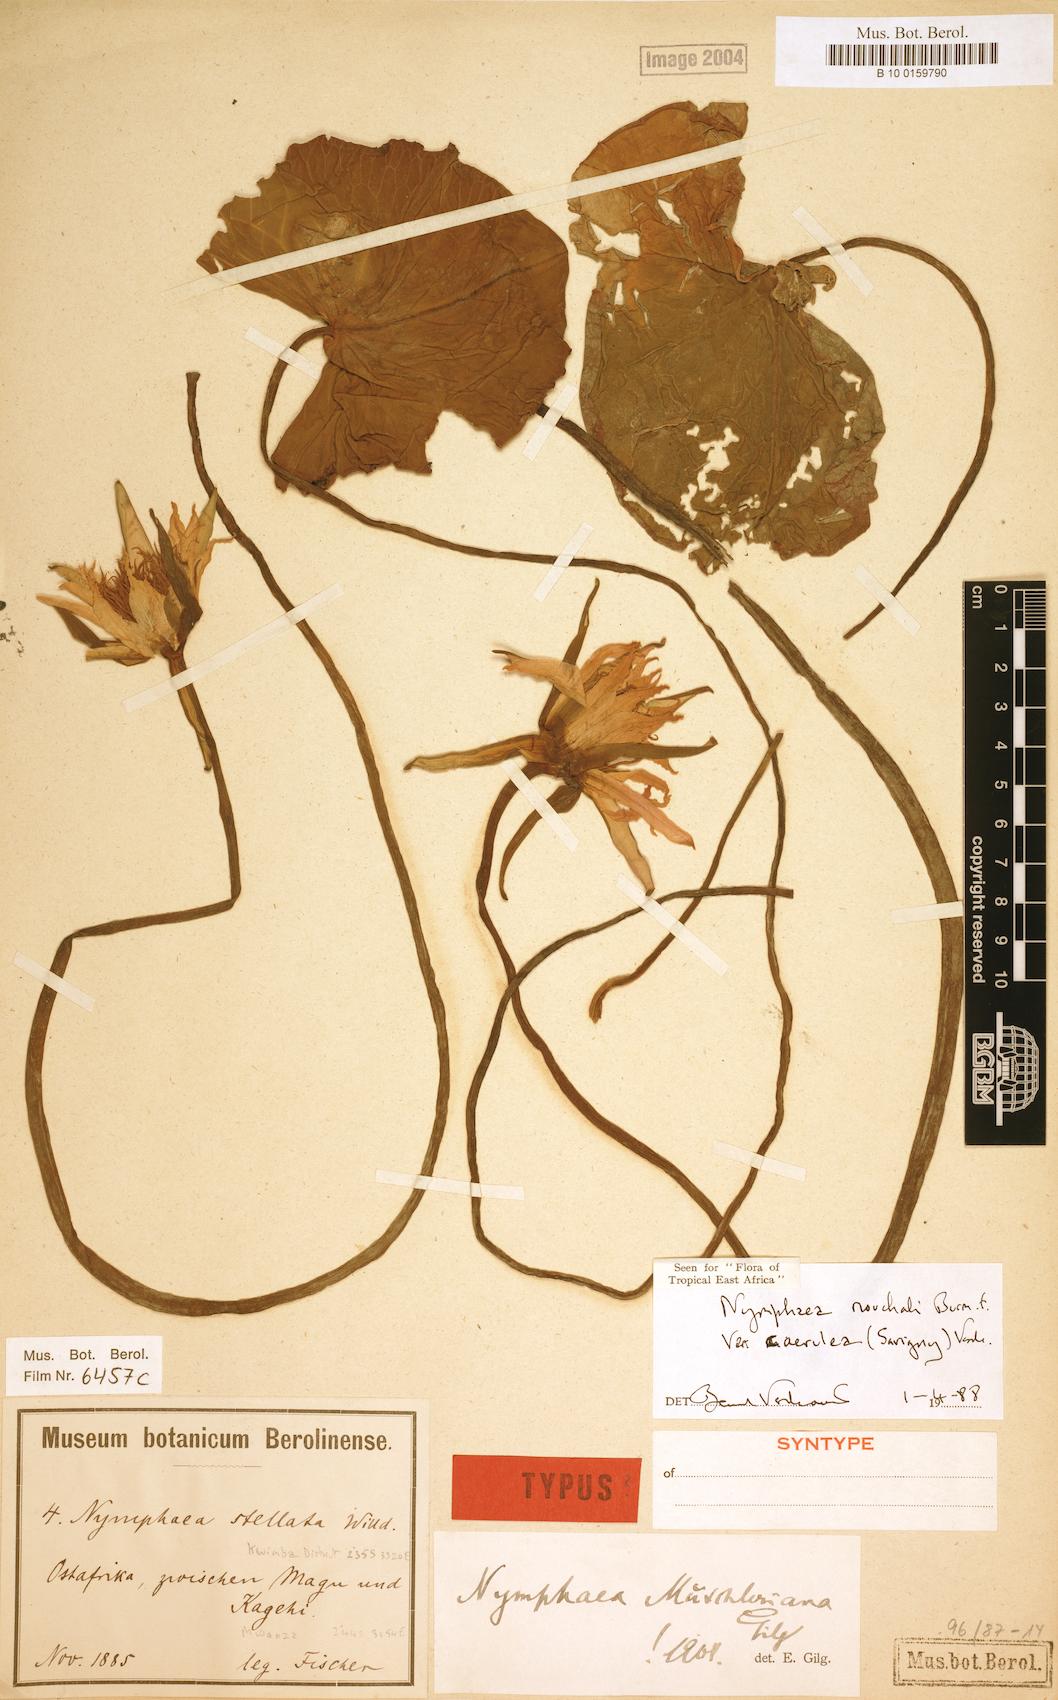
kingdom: Plantae
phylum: Tracheophyta
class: Magnoliopsida
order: Nymphaeales
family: Nymphaeaceae
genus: Nymphaea
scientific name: Nymphaea nouchali
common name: Blue lotus
